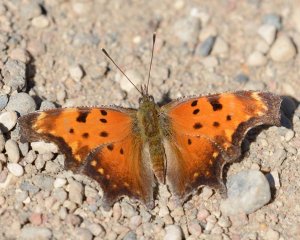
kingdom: Animalia
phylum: Arthropoda
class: Insecta
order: Lepidoptera
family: Nymphalidae
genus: Polygonia
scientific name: Polygonia progne
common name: Gray Comma
